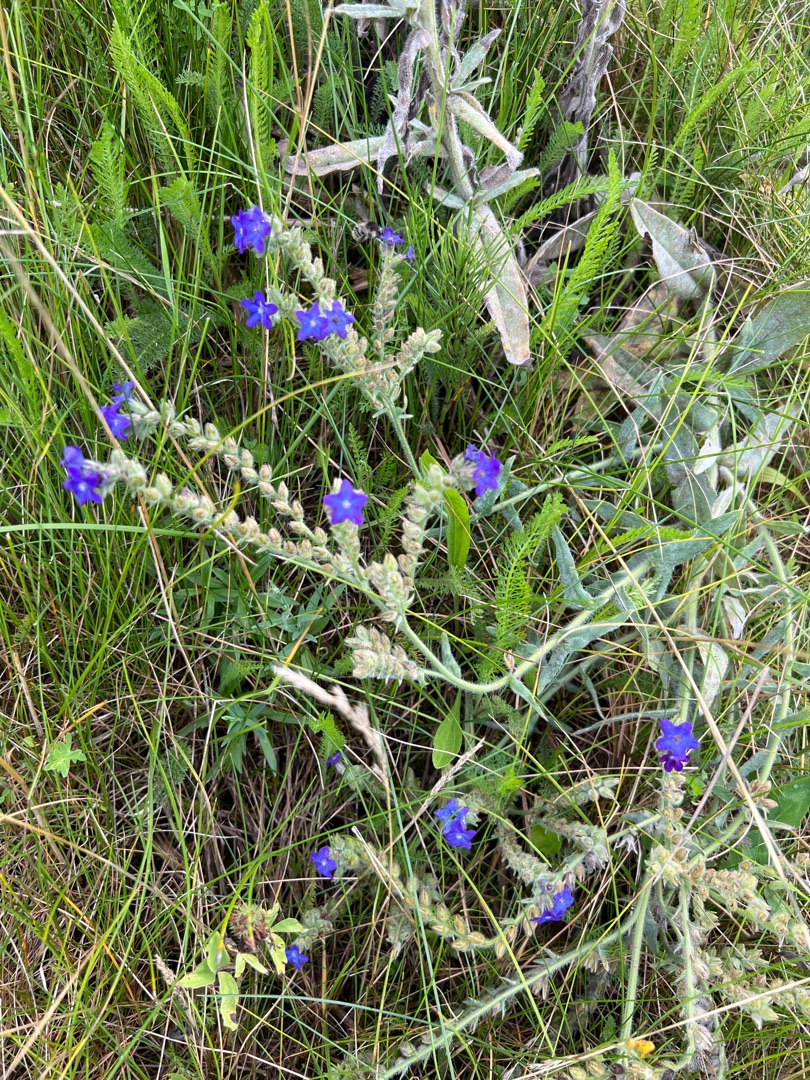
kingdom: Plantae
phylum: Tracheophyta
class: Magnoliopsida
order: Boraginales
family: Boraginaceae
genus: Anchusa
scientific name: Anchusa officinalis
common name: Læge-oksetunge
